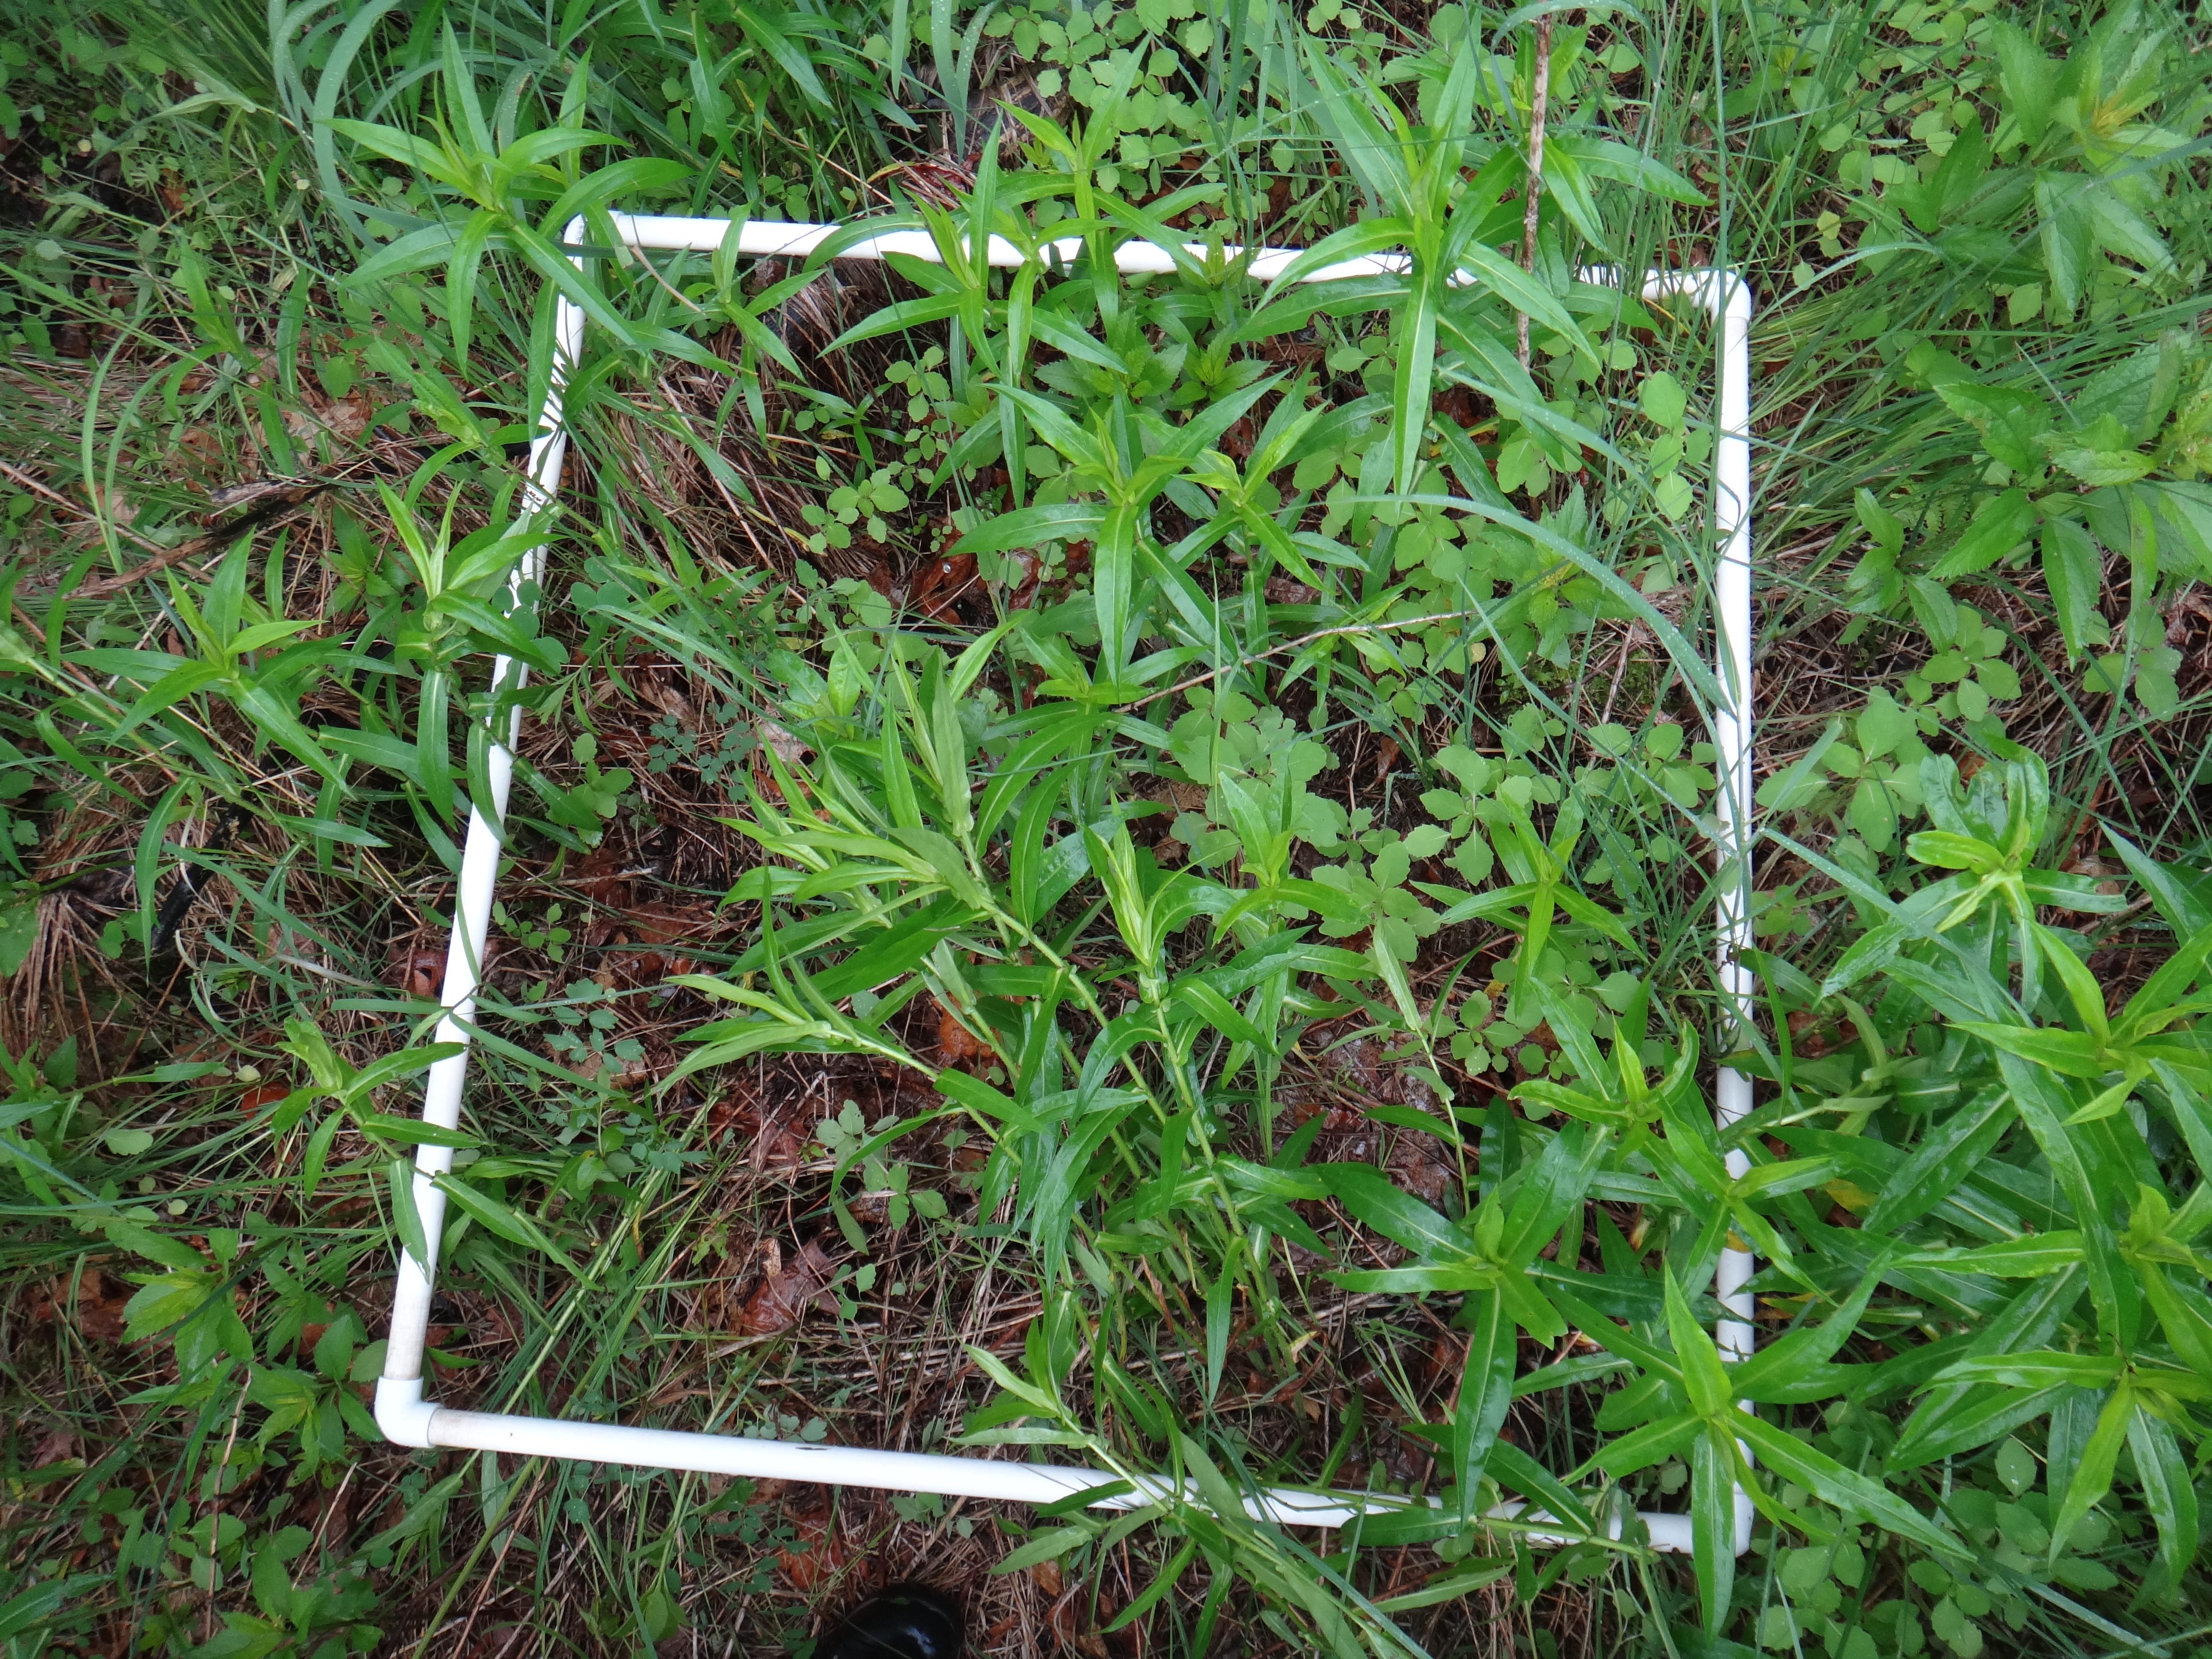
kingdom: Plantae
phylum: Tracheophyta
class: Magnoliopsida
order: Asterales
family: Asteraceae
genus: Eutrochium
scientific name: Eutrochium maculatum
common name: Spotted joe pye weed
